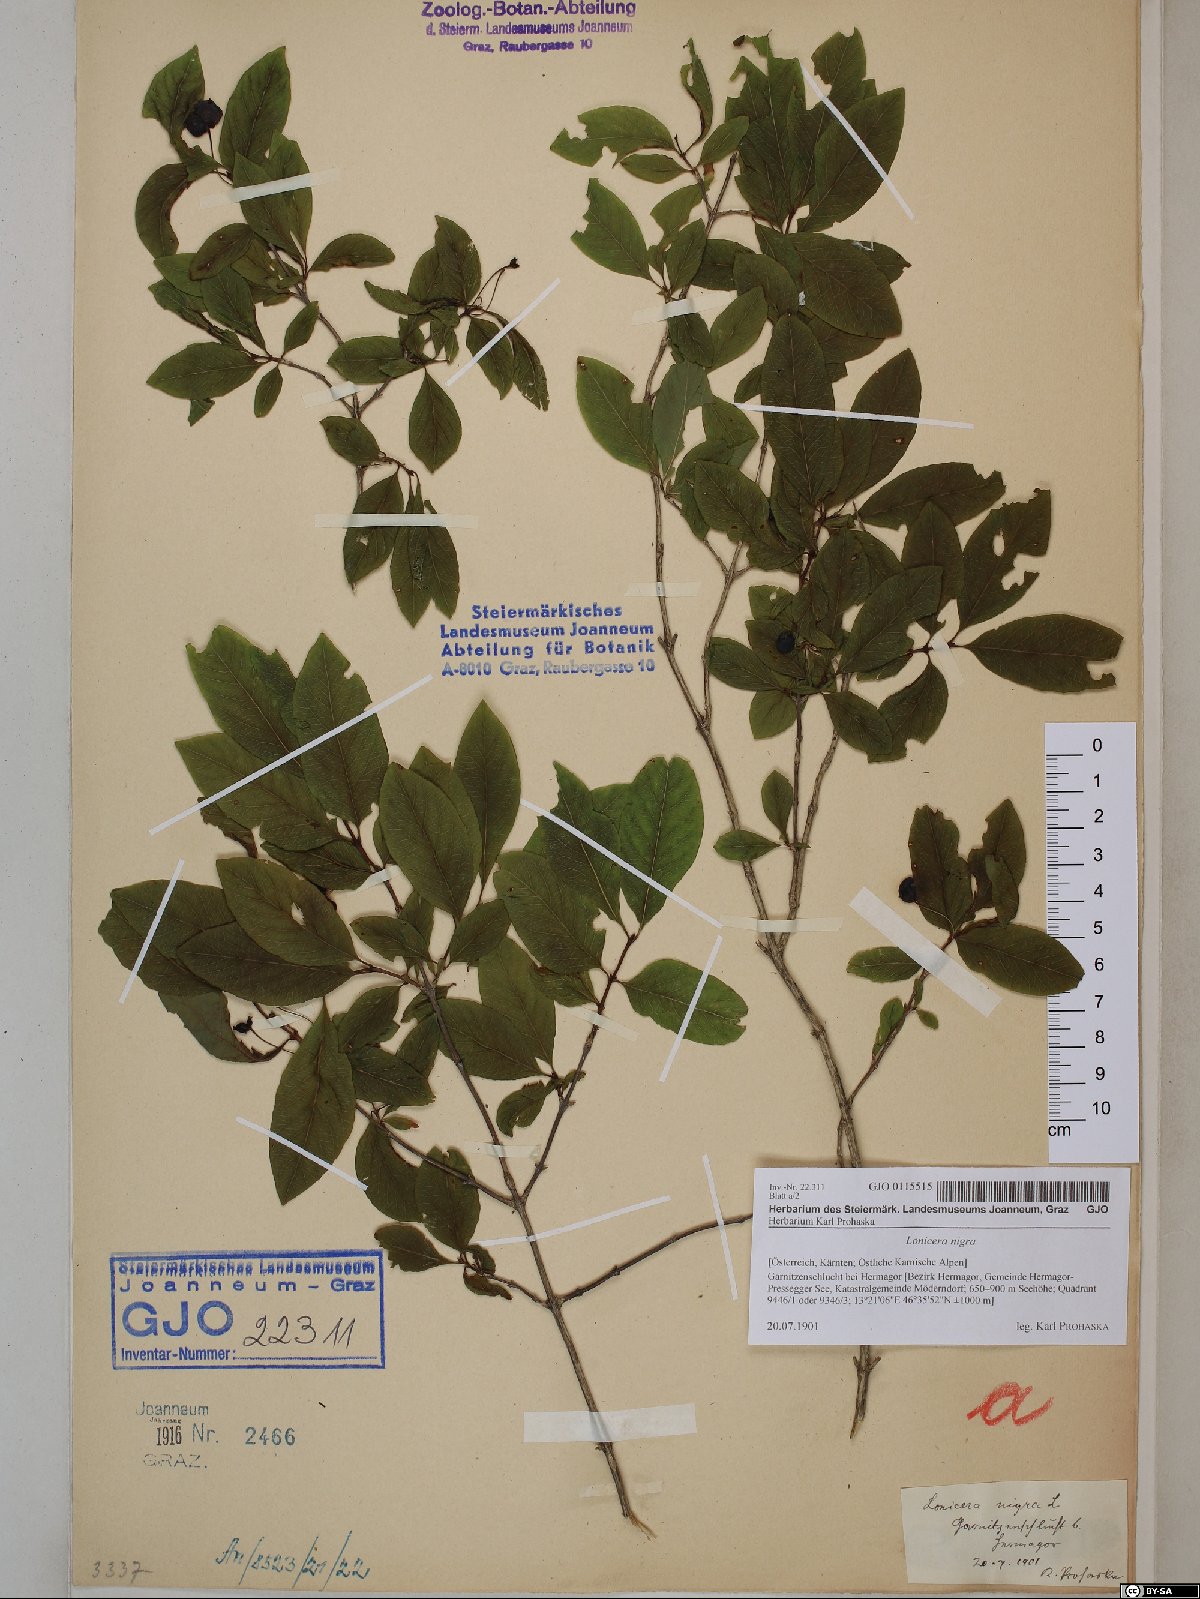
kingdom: Plantae
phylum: Tracheophyta
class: Magnoliopsida
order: Dipsacales
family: Caprifoliaceae
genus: Lonicera
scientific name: Lonicera nigra
